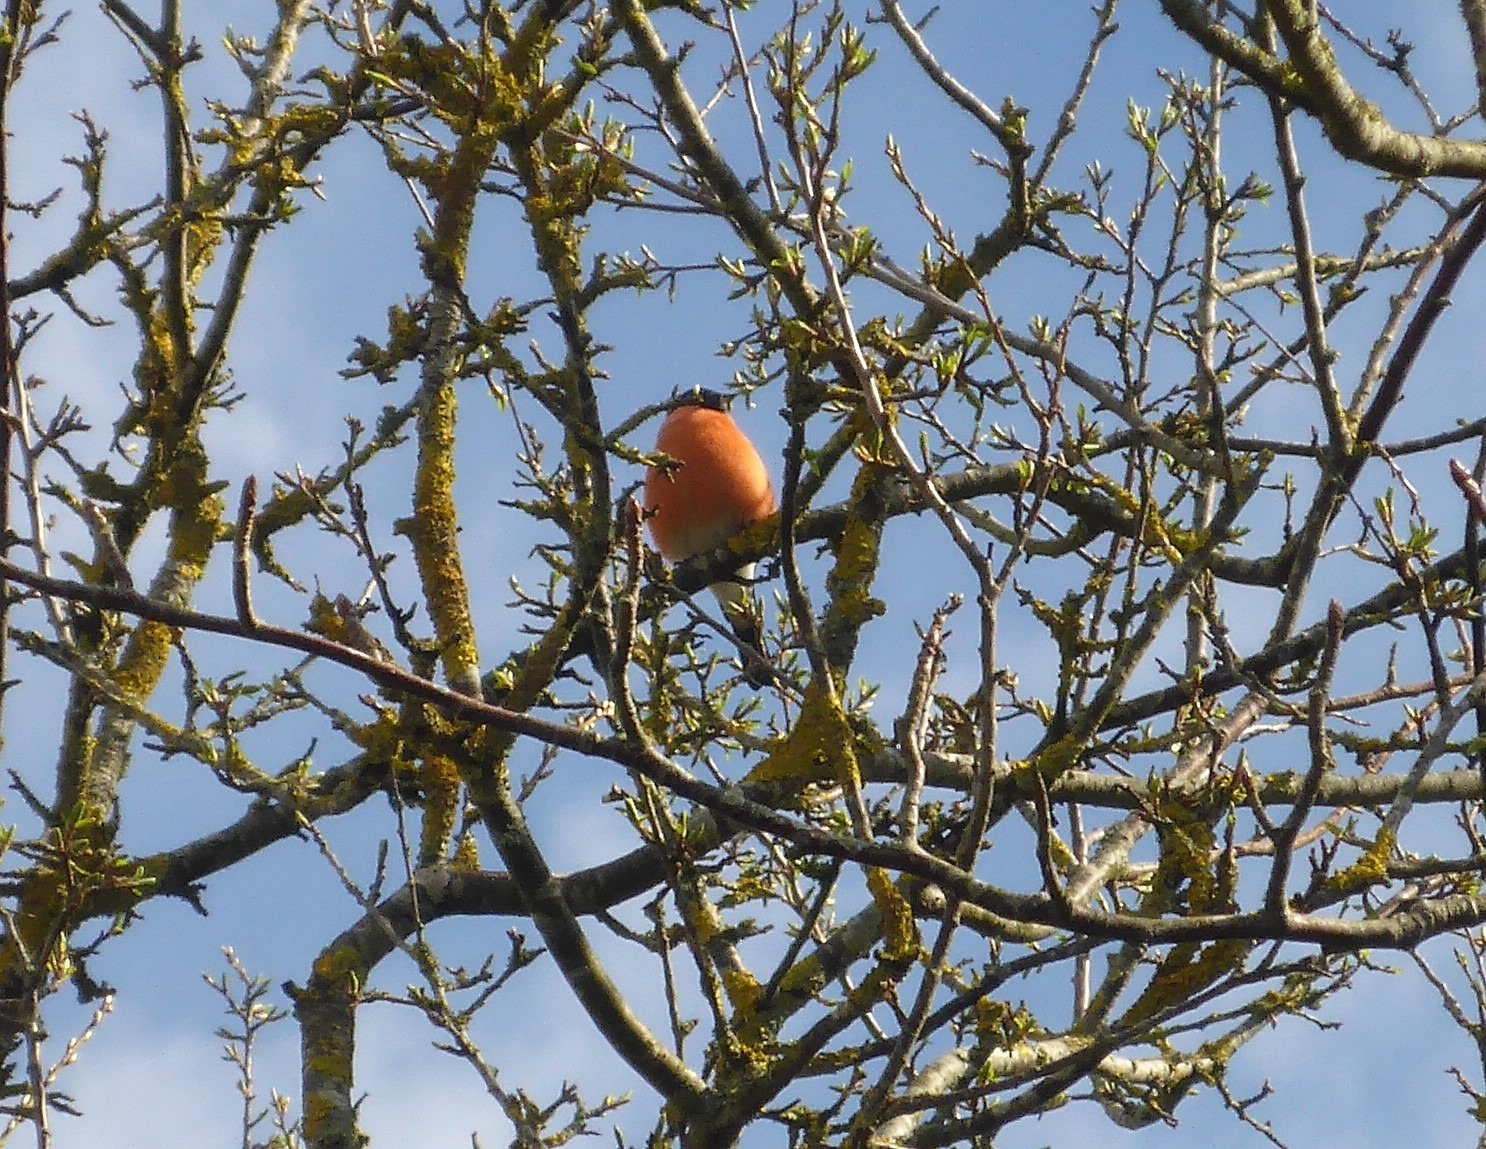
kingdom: Animalia
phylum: Chordata
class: Aves
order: Passeriformes
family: Fringillidae
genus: Pyrrhula
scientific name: Pyrrhula pyrrhula
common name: Dompap
